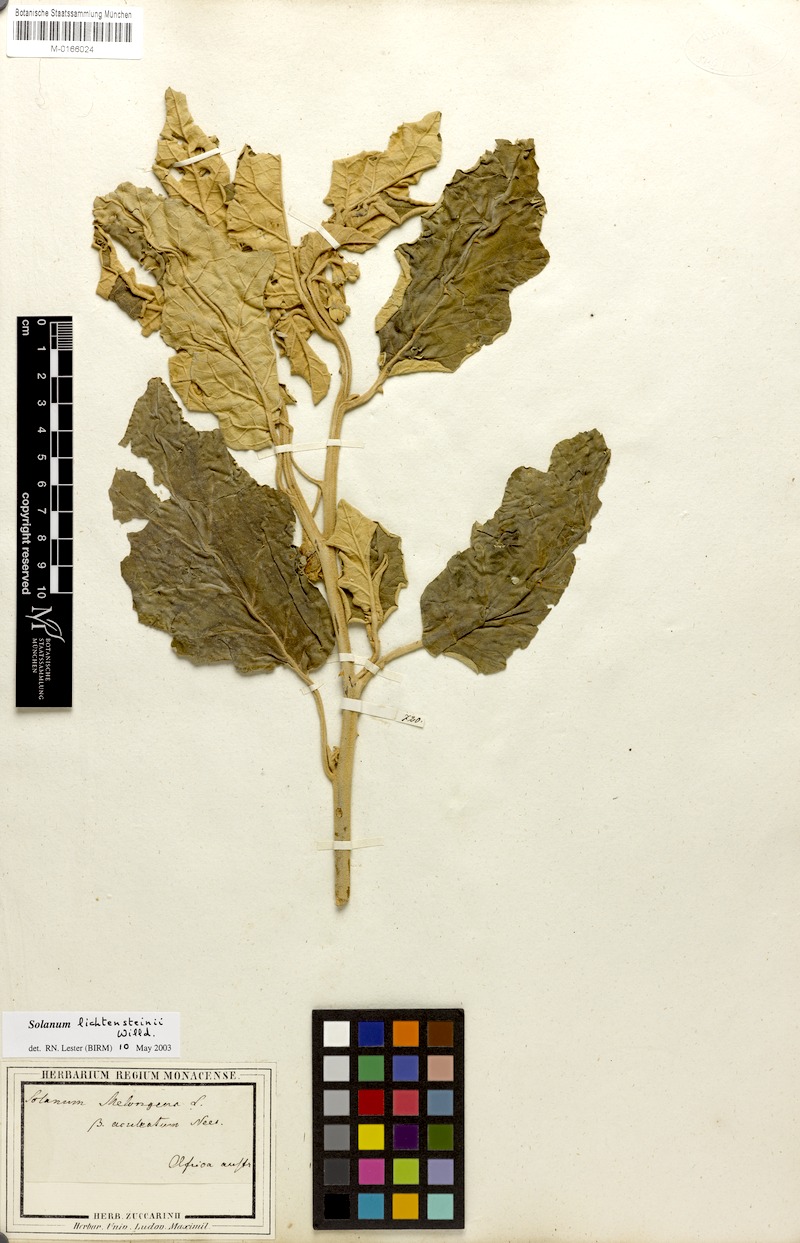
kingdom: Plantae
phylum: Tracheophyta
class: Magnoliopsida
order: Solanales
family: Solanaceae
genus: Solanum
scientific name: Solanum lichtensteinii
